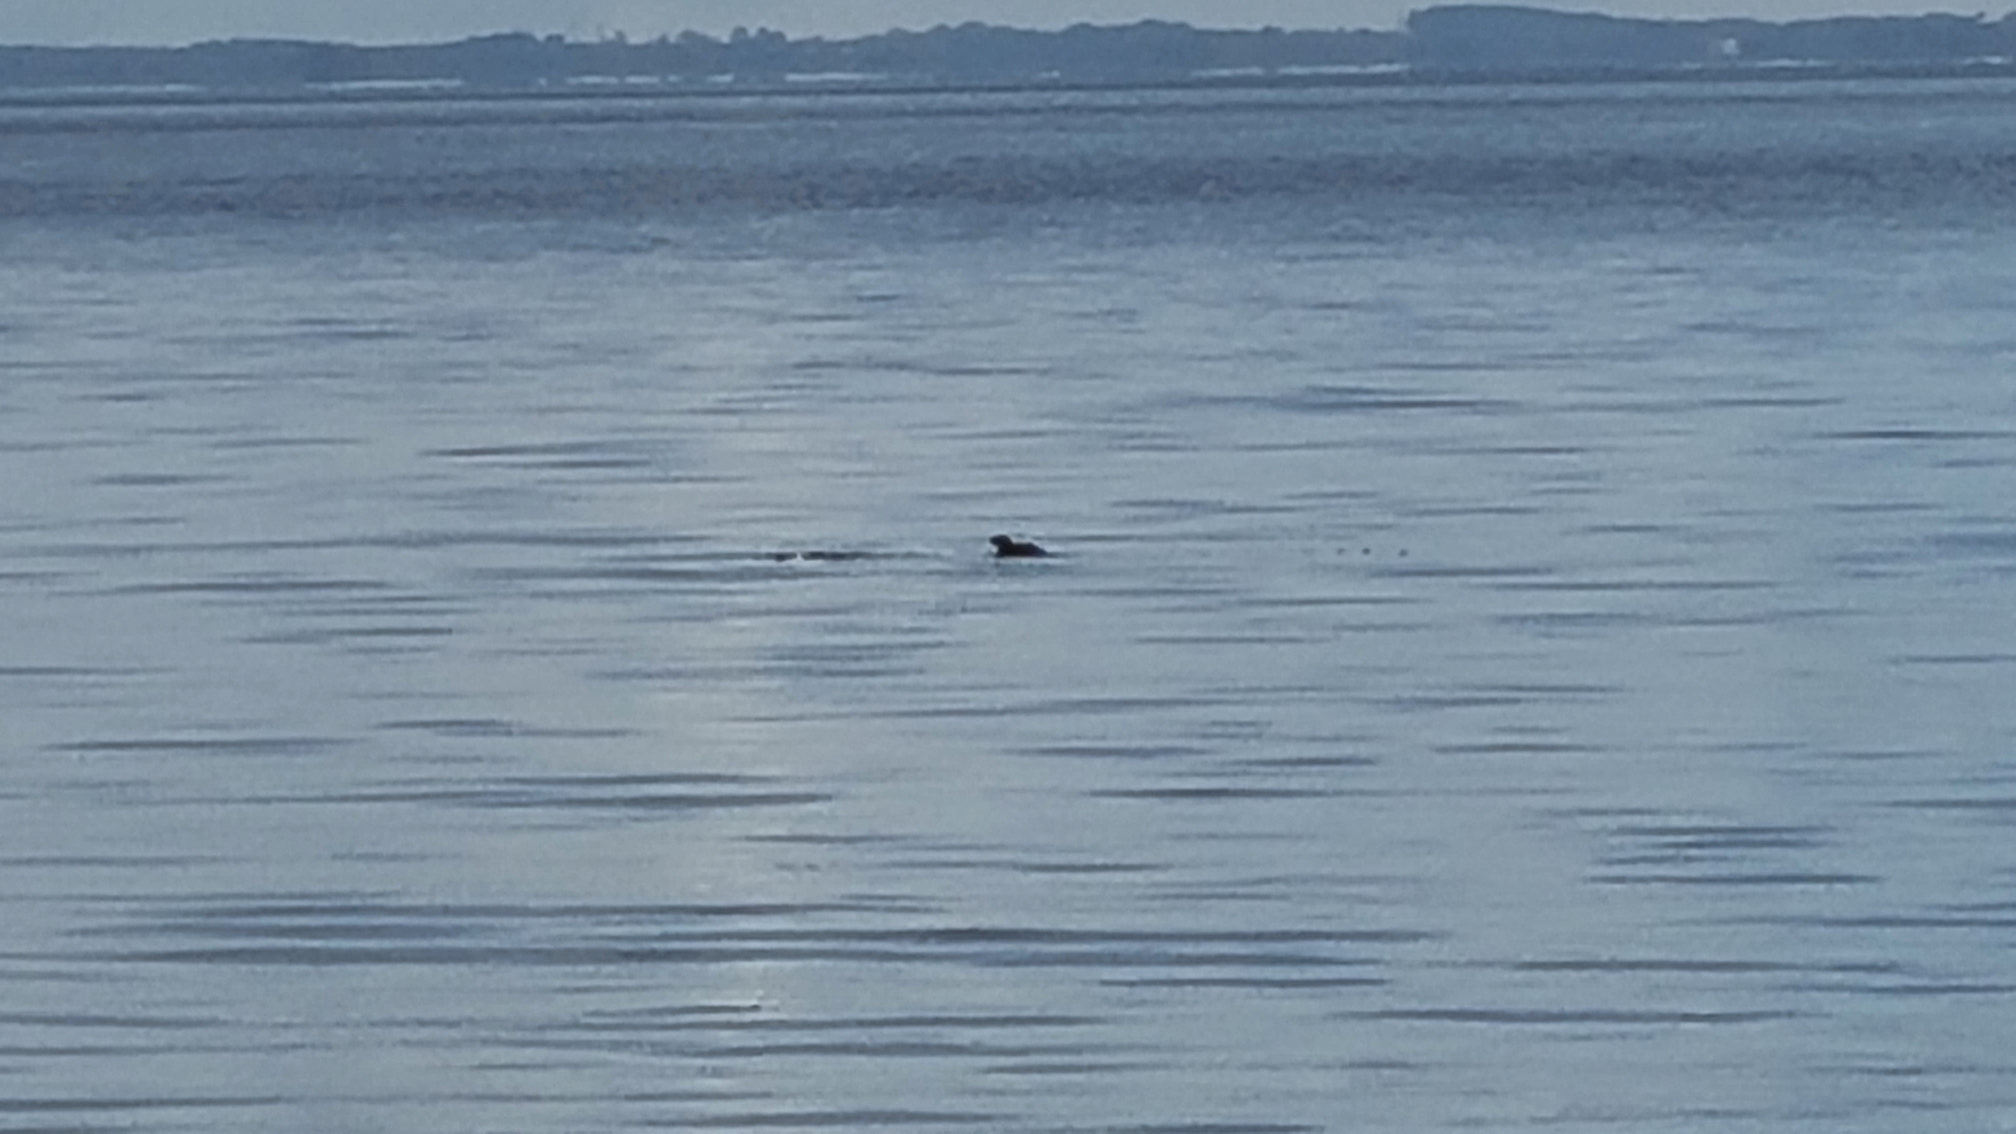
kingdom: Animalia
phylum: Chordata
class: Aves
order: Charadriiformes
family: Alcidae
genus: Alca
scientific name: Alca torda
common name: Alk
